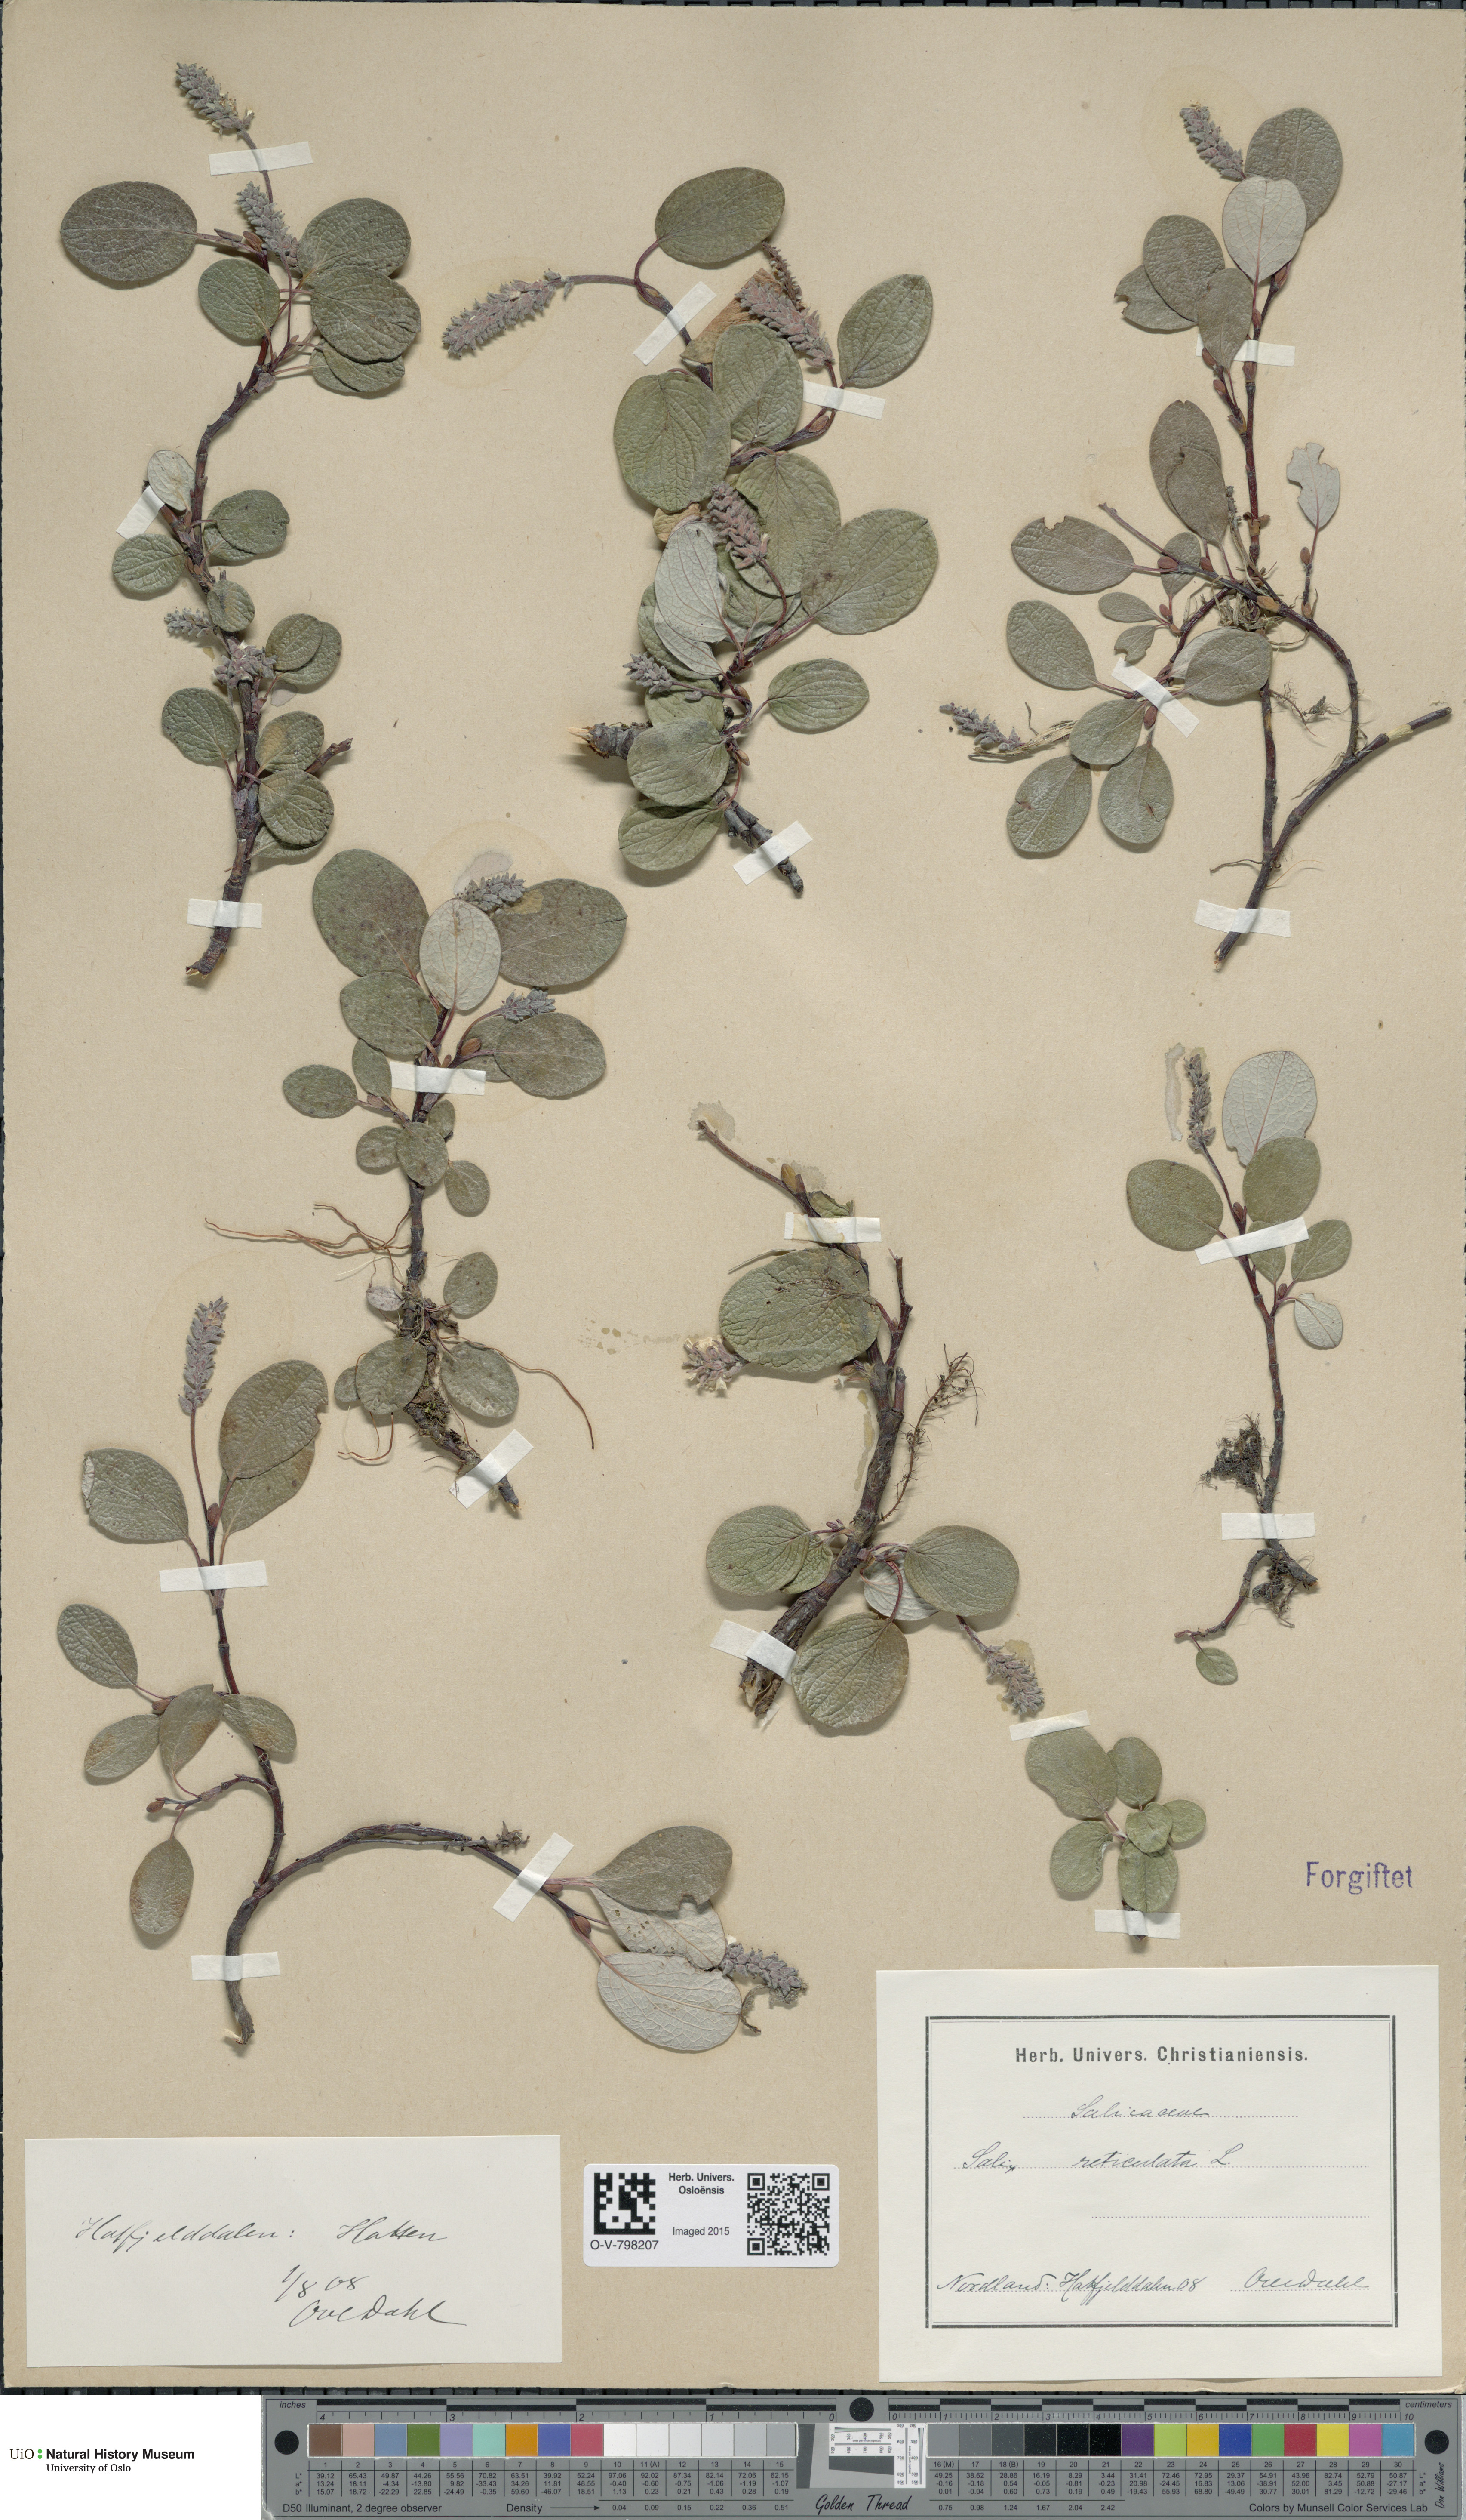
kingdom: Plantae
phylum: Tracheophyta
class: Magnoliopsida
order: Malpighiales
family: Salicaceae
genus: Salix
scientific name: Salix reticulata
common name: Net-leaved willow
